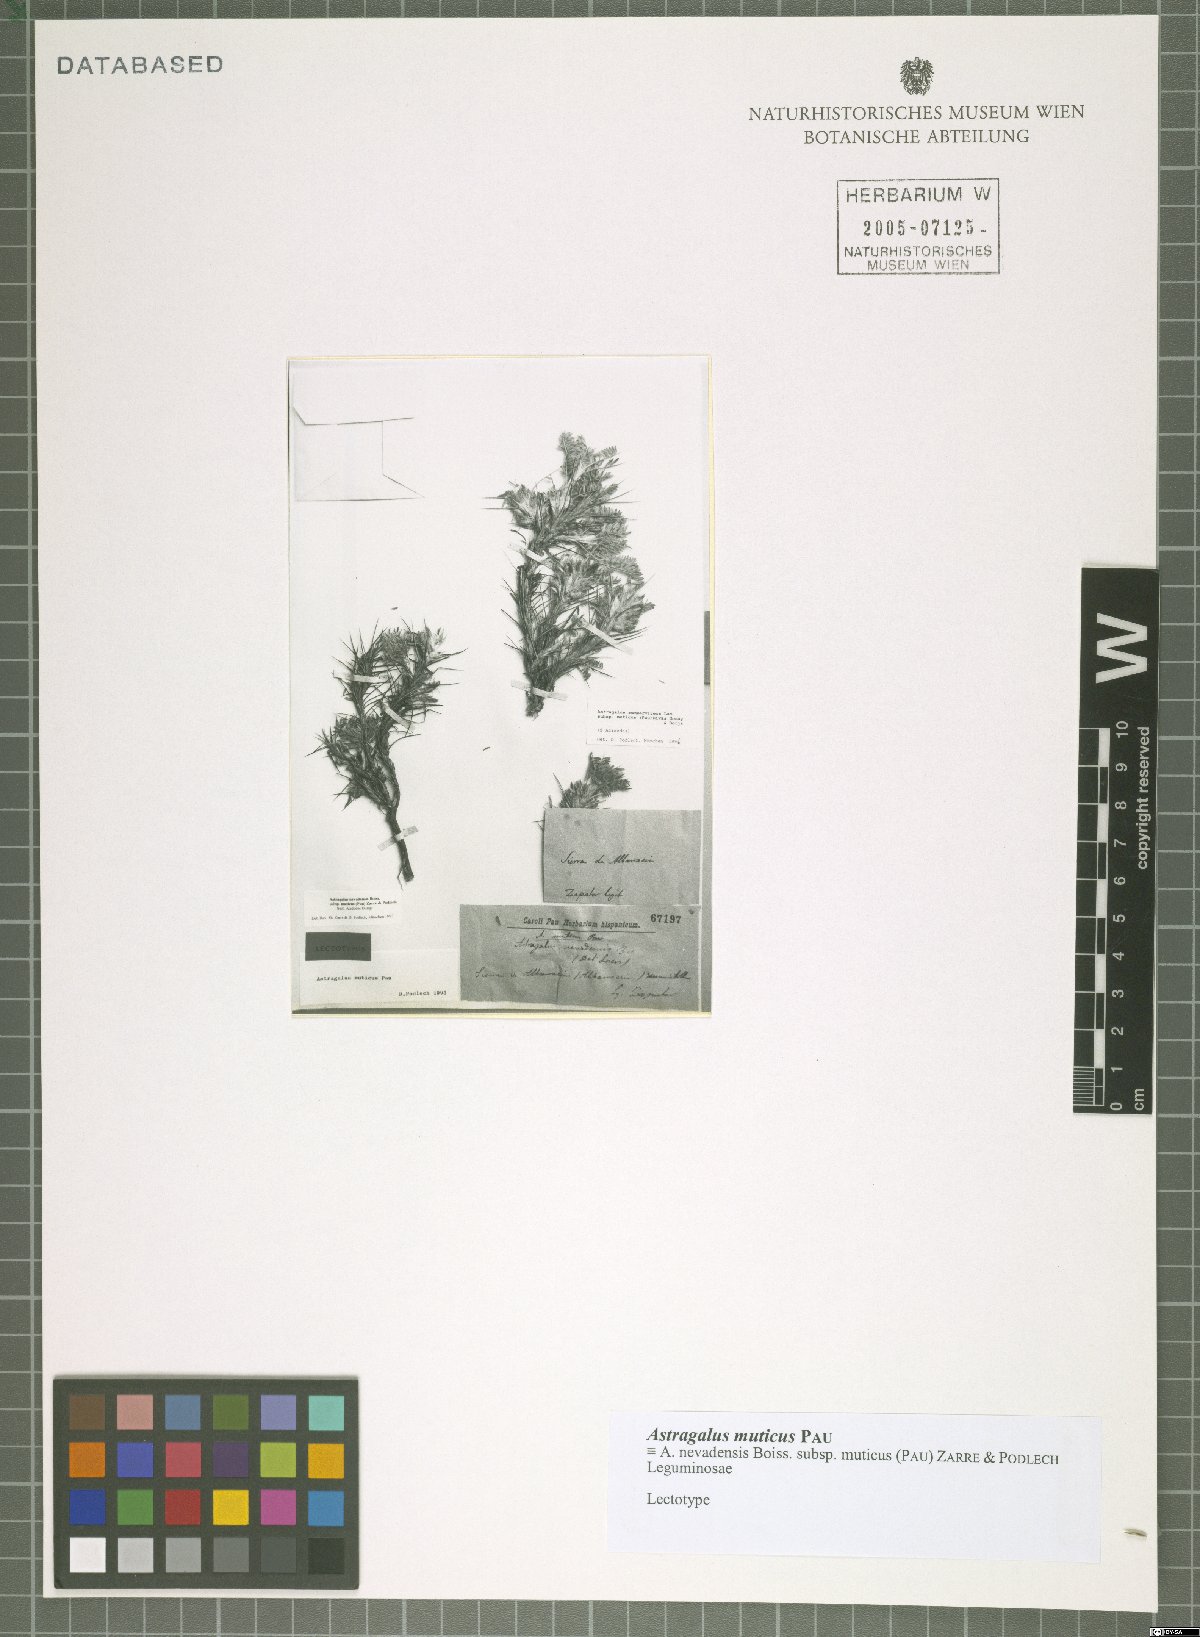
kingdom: Plantae
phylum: Tracheophyta
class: Magnoliopsida
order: Fabales
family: Fabaceae
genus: Astragalus
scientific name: Astragalus nevadensis
